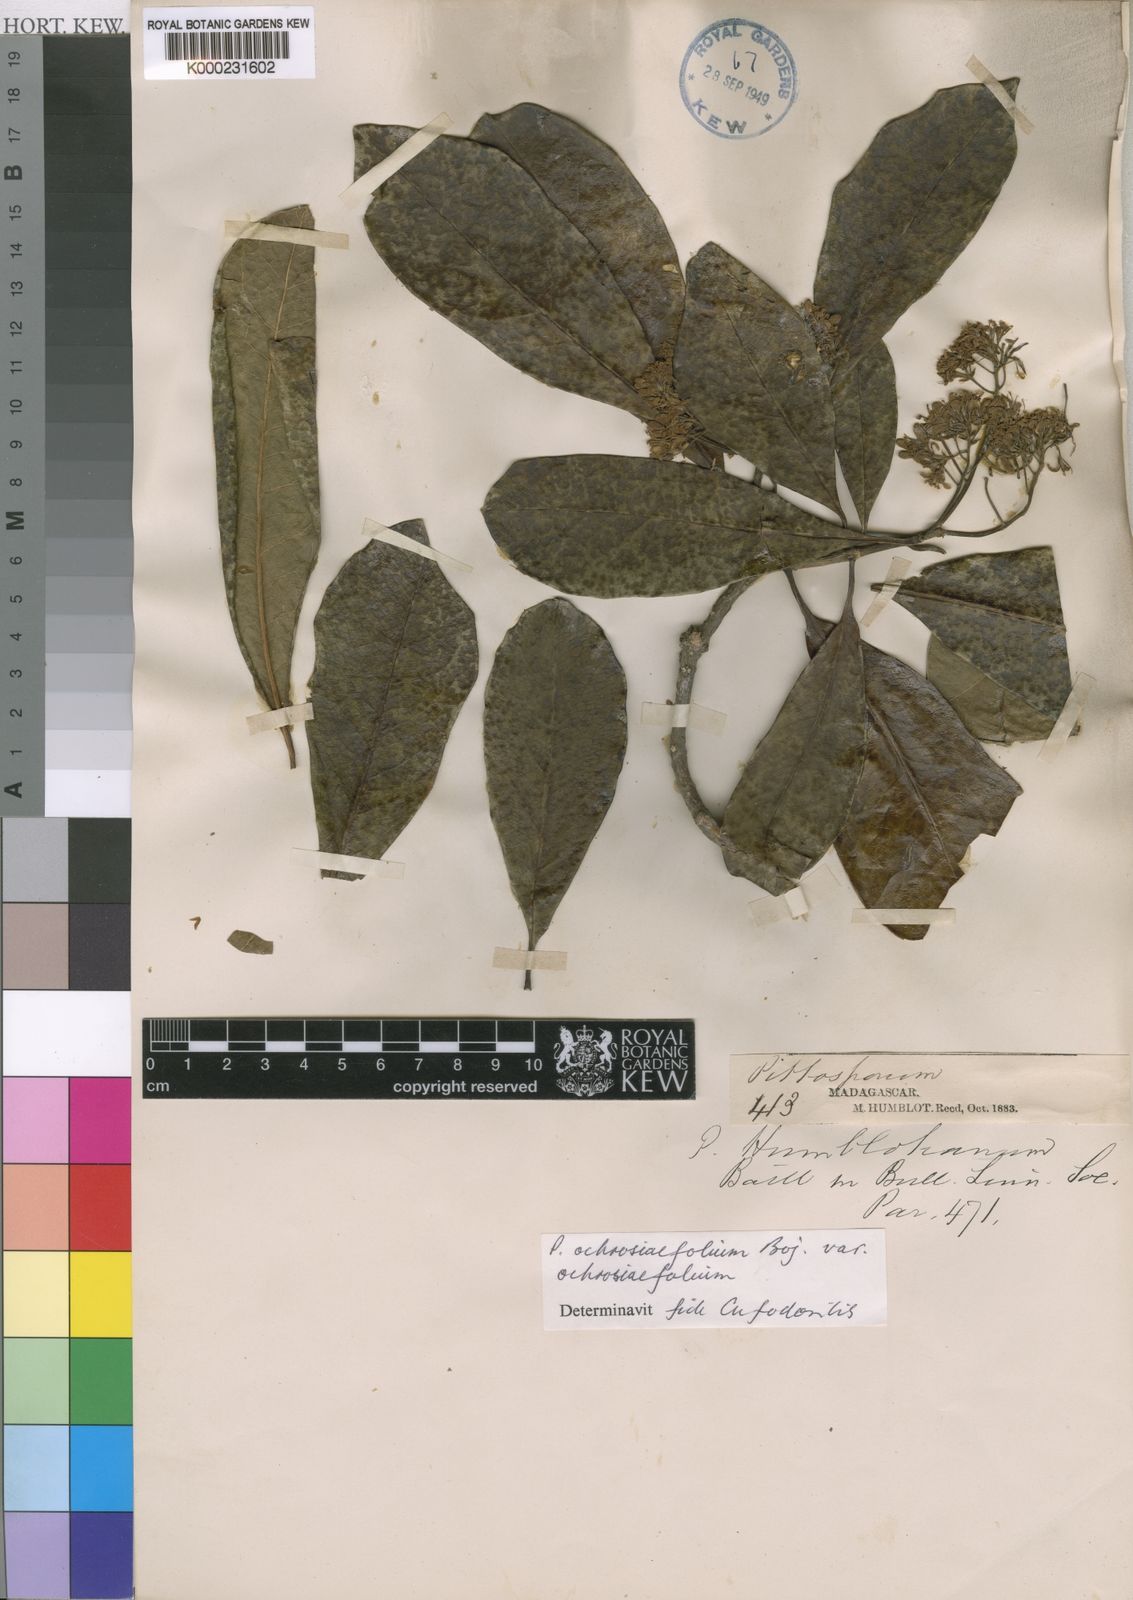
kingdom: Plantae
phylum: Tracheophyta
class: Magnoliopsida
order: Apiales
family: Pittosporaceae
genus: Pittosporum
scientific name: Pittosporum
